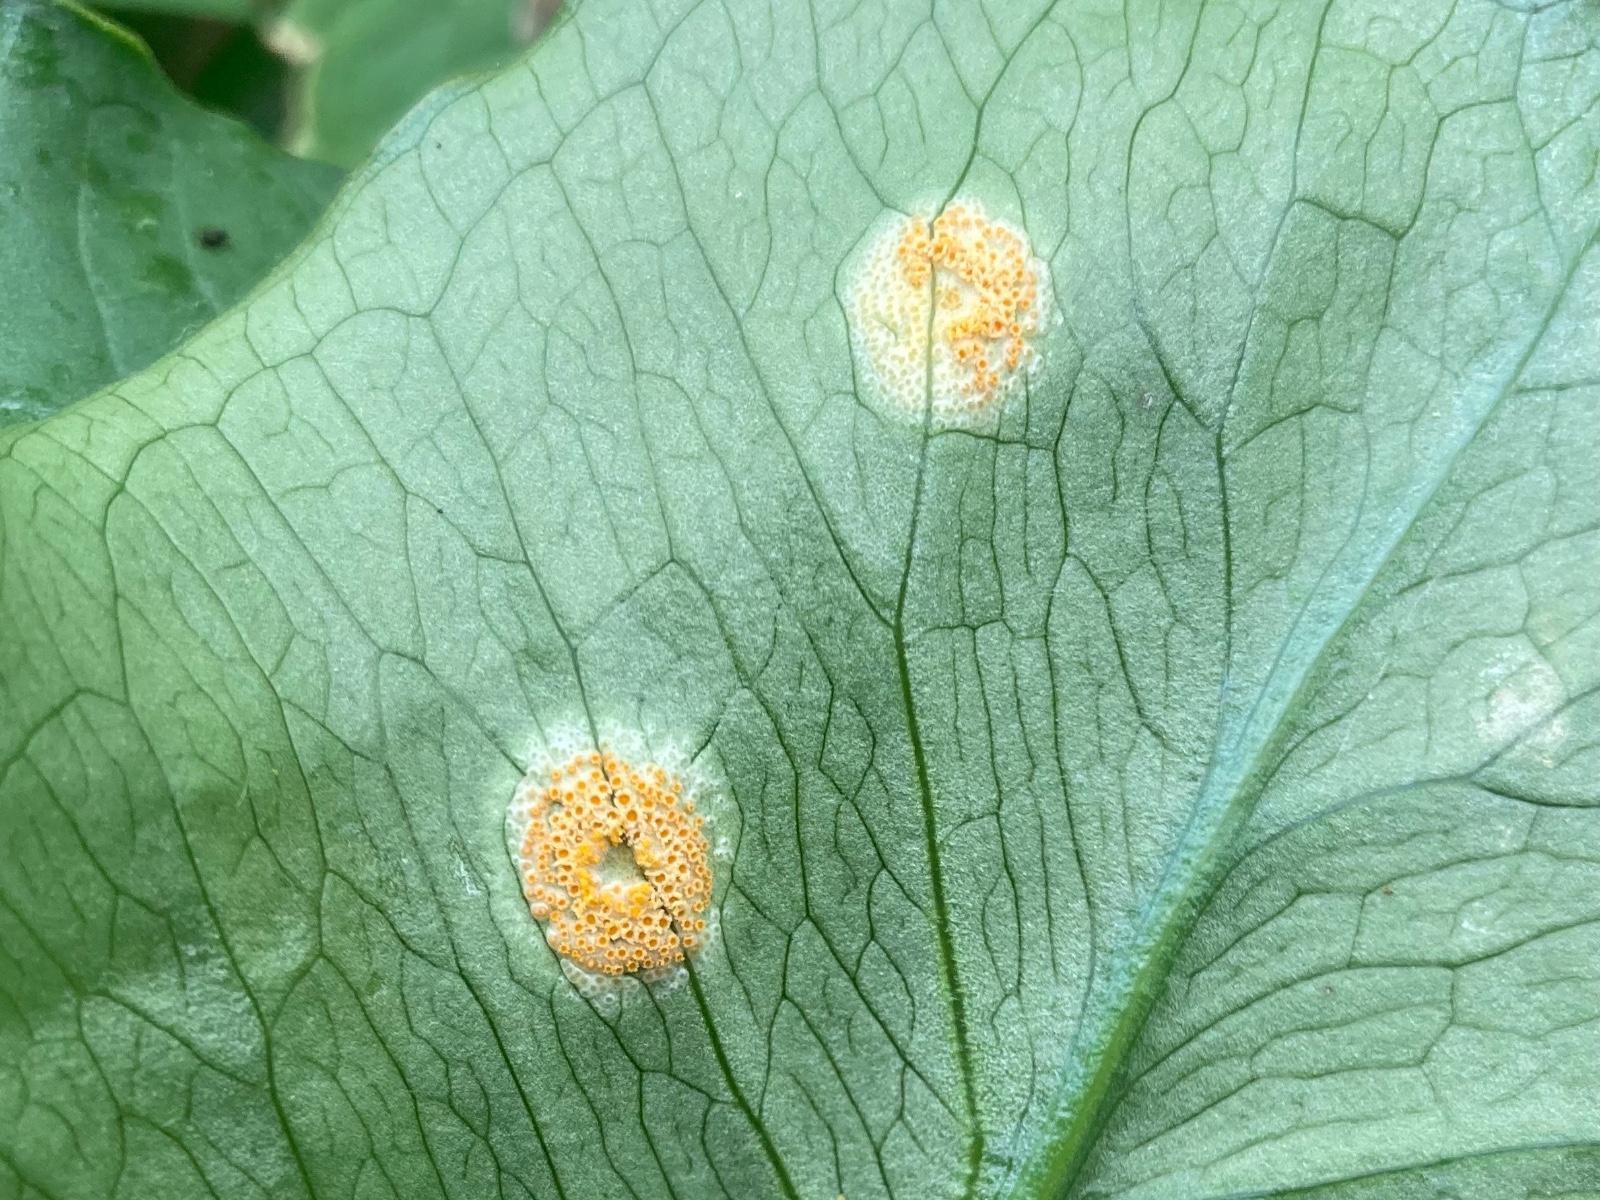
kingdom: Fungi
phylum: Basidiomycota
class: Pucciniomycetes
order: Pucciniales
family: Pucciniaceae
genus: Puccinia
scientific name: Puccinia sessilis
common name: Arum rust
